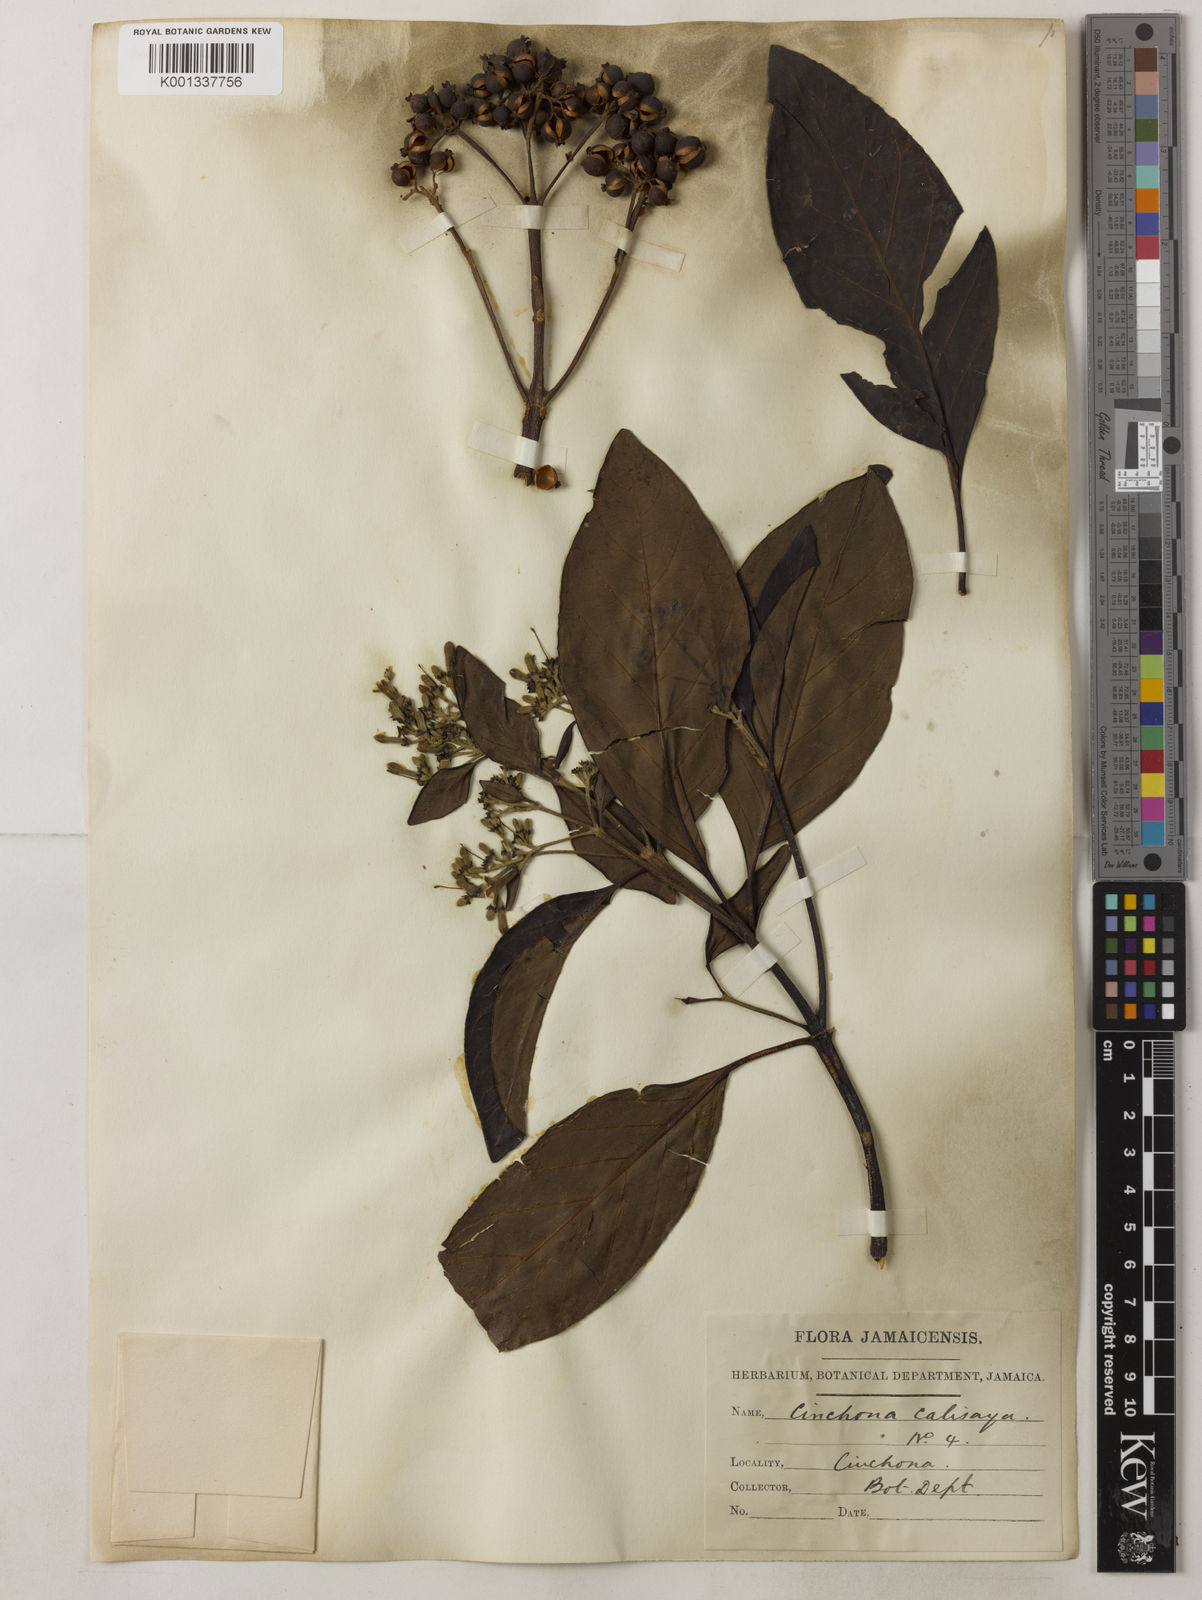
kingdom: Plantae
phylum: Tracheophyta
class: Magnoliopsida
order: Gentianales
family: Rubiaceae
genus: Cinchona
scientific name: Cinchona calisaya
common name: Ledgerbark
